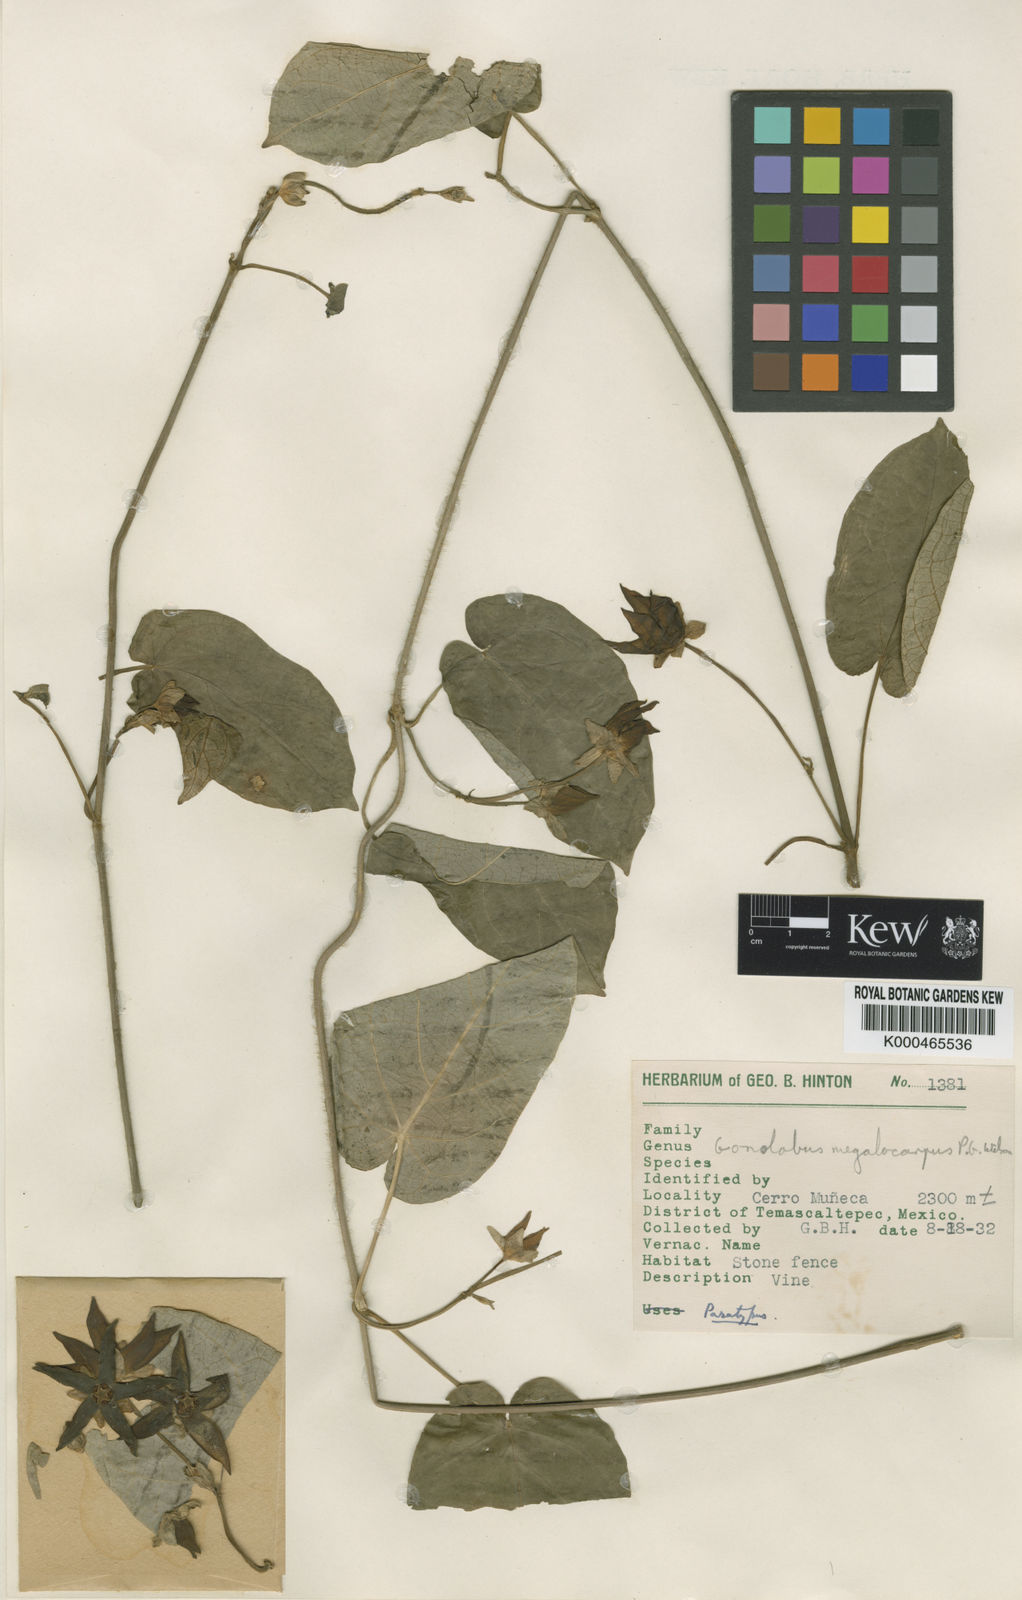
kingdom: Plantae
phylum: Tracheophyta
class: Magnoliopsida
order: Gentianales
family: Apocynaceae
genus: Gonolobus
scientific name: Gonolobus pancololote
